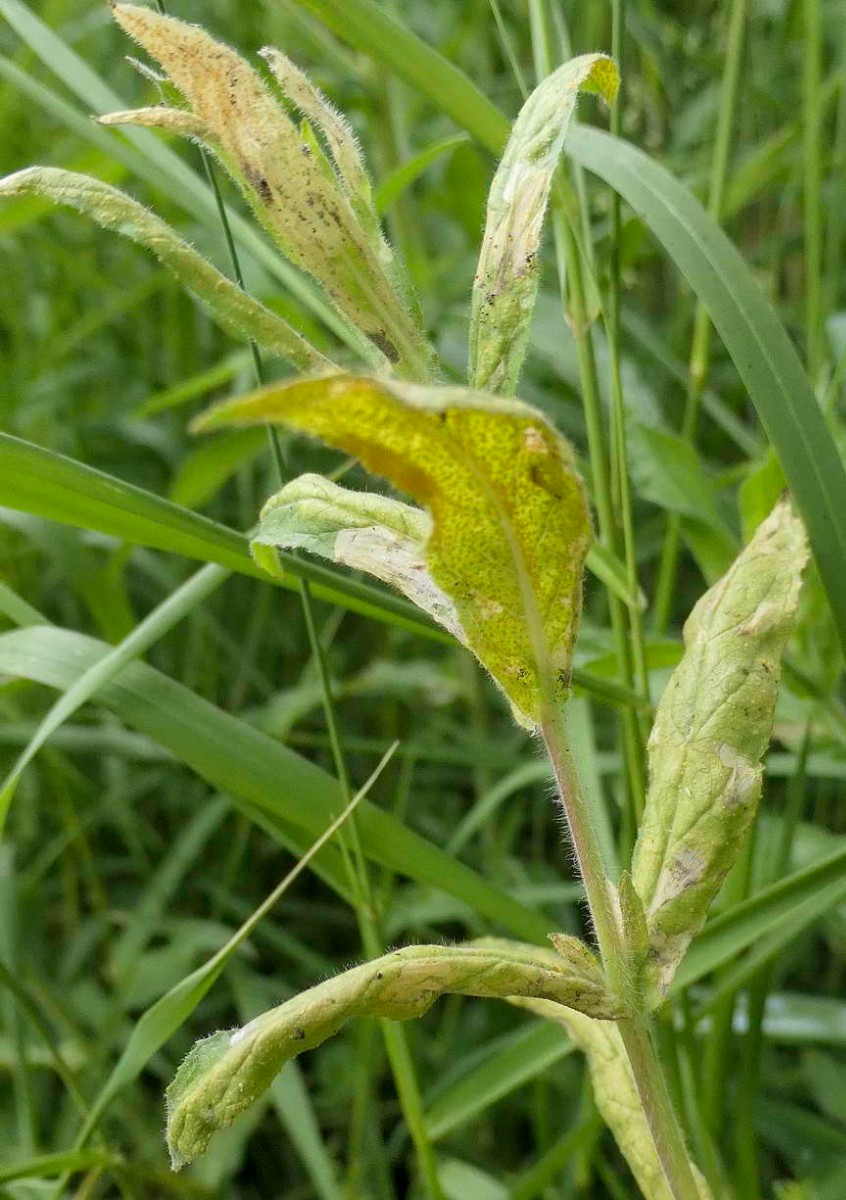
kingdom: Fungi
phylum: Basidiomycota
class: Pucciniomycetes
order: Pucciniales
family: Pucciniaceae
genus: Puccinia
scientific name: Puccinia pulverulenta
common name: dueurt-tvecellerust
